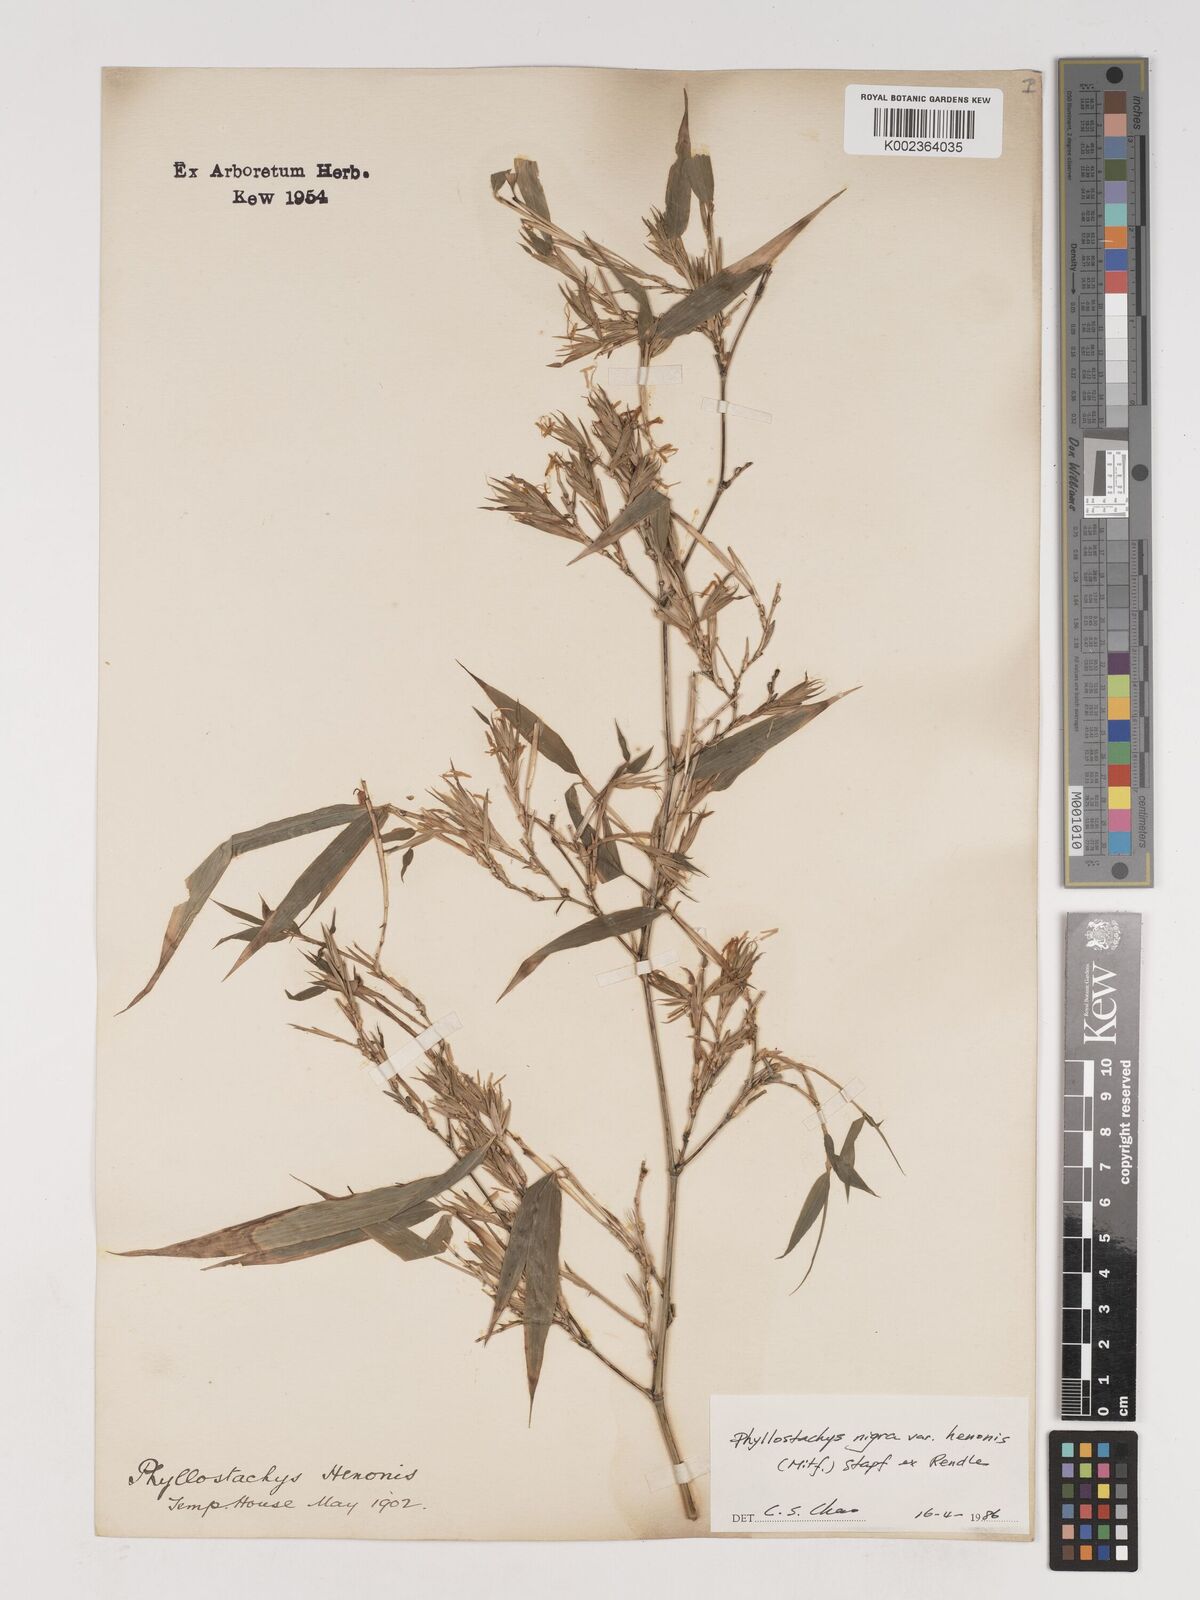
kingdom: Plantae
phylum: Tracheophyta
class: Liliopsida
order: Poales
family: Poaceae
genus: Phyllostachys
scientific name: Phyllostachys nigra
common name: Black bamboo
